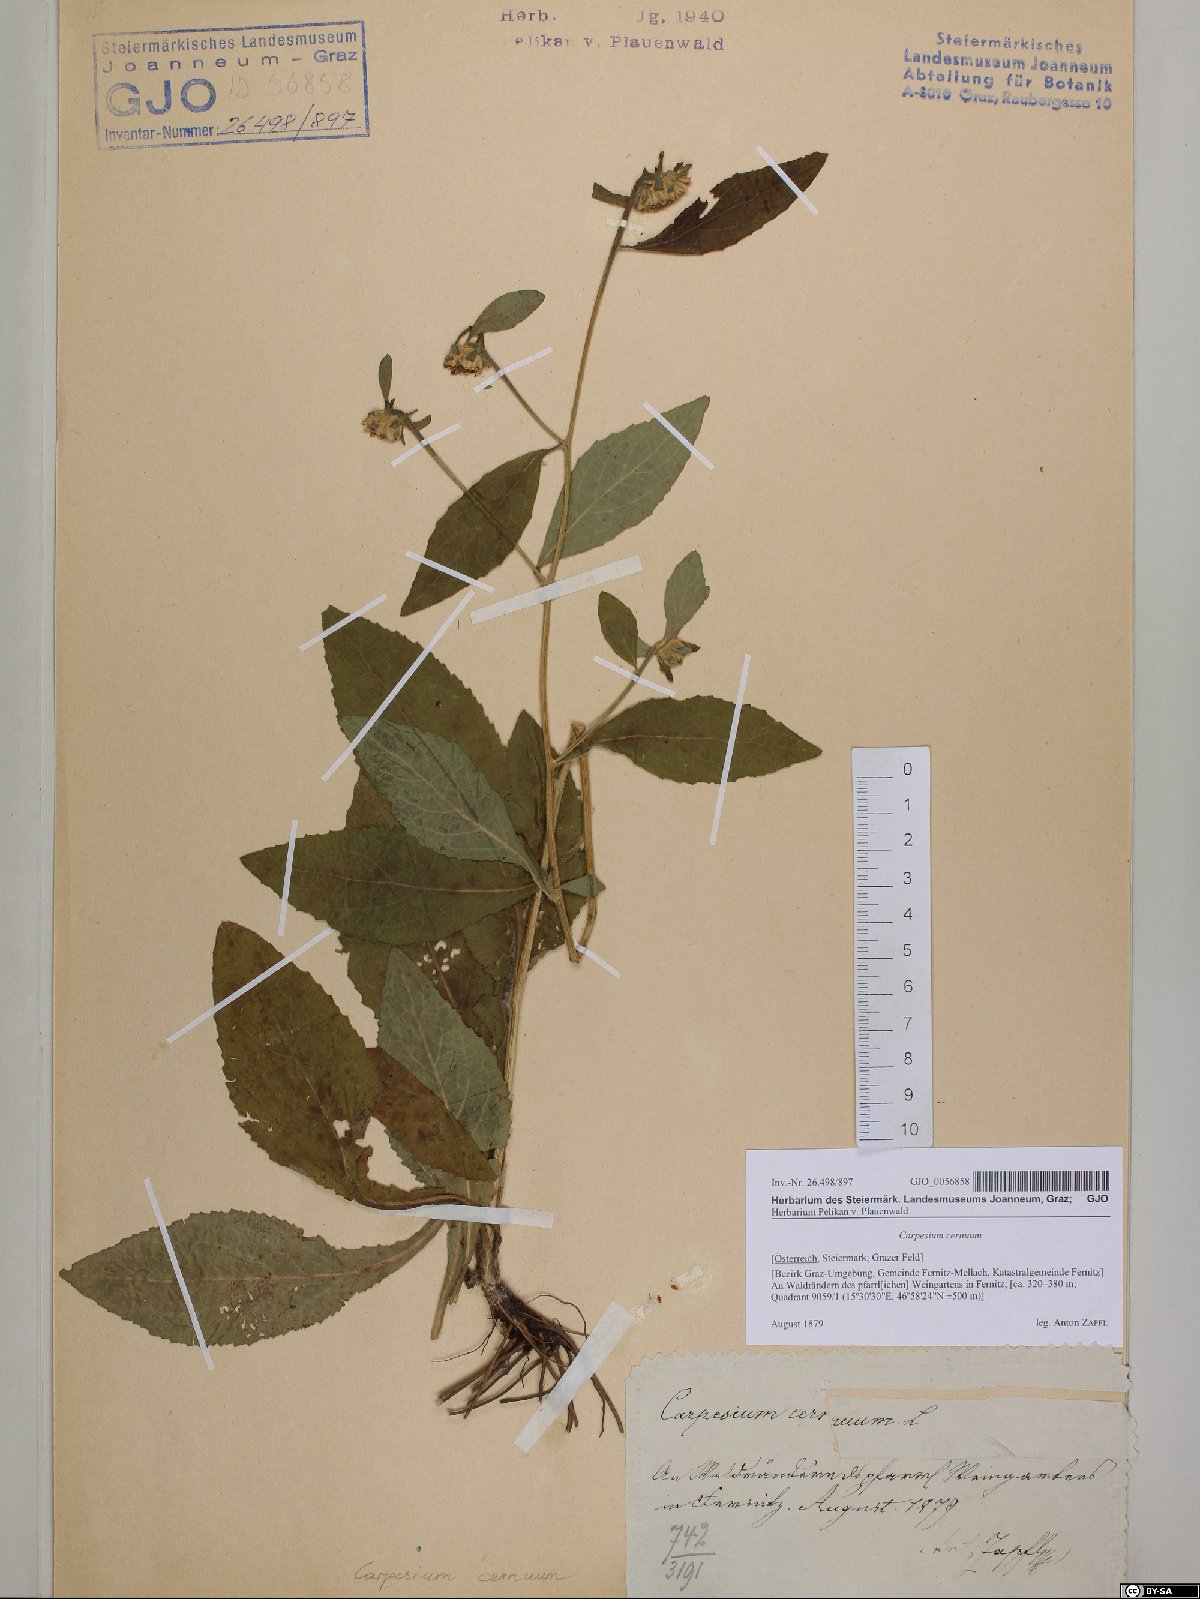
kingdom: Plantae
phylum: Tracheophyta
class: Magnoliopsida
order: Asterales
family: Asteraceae
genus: Carpesium
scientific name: Carpesium cernuum
